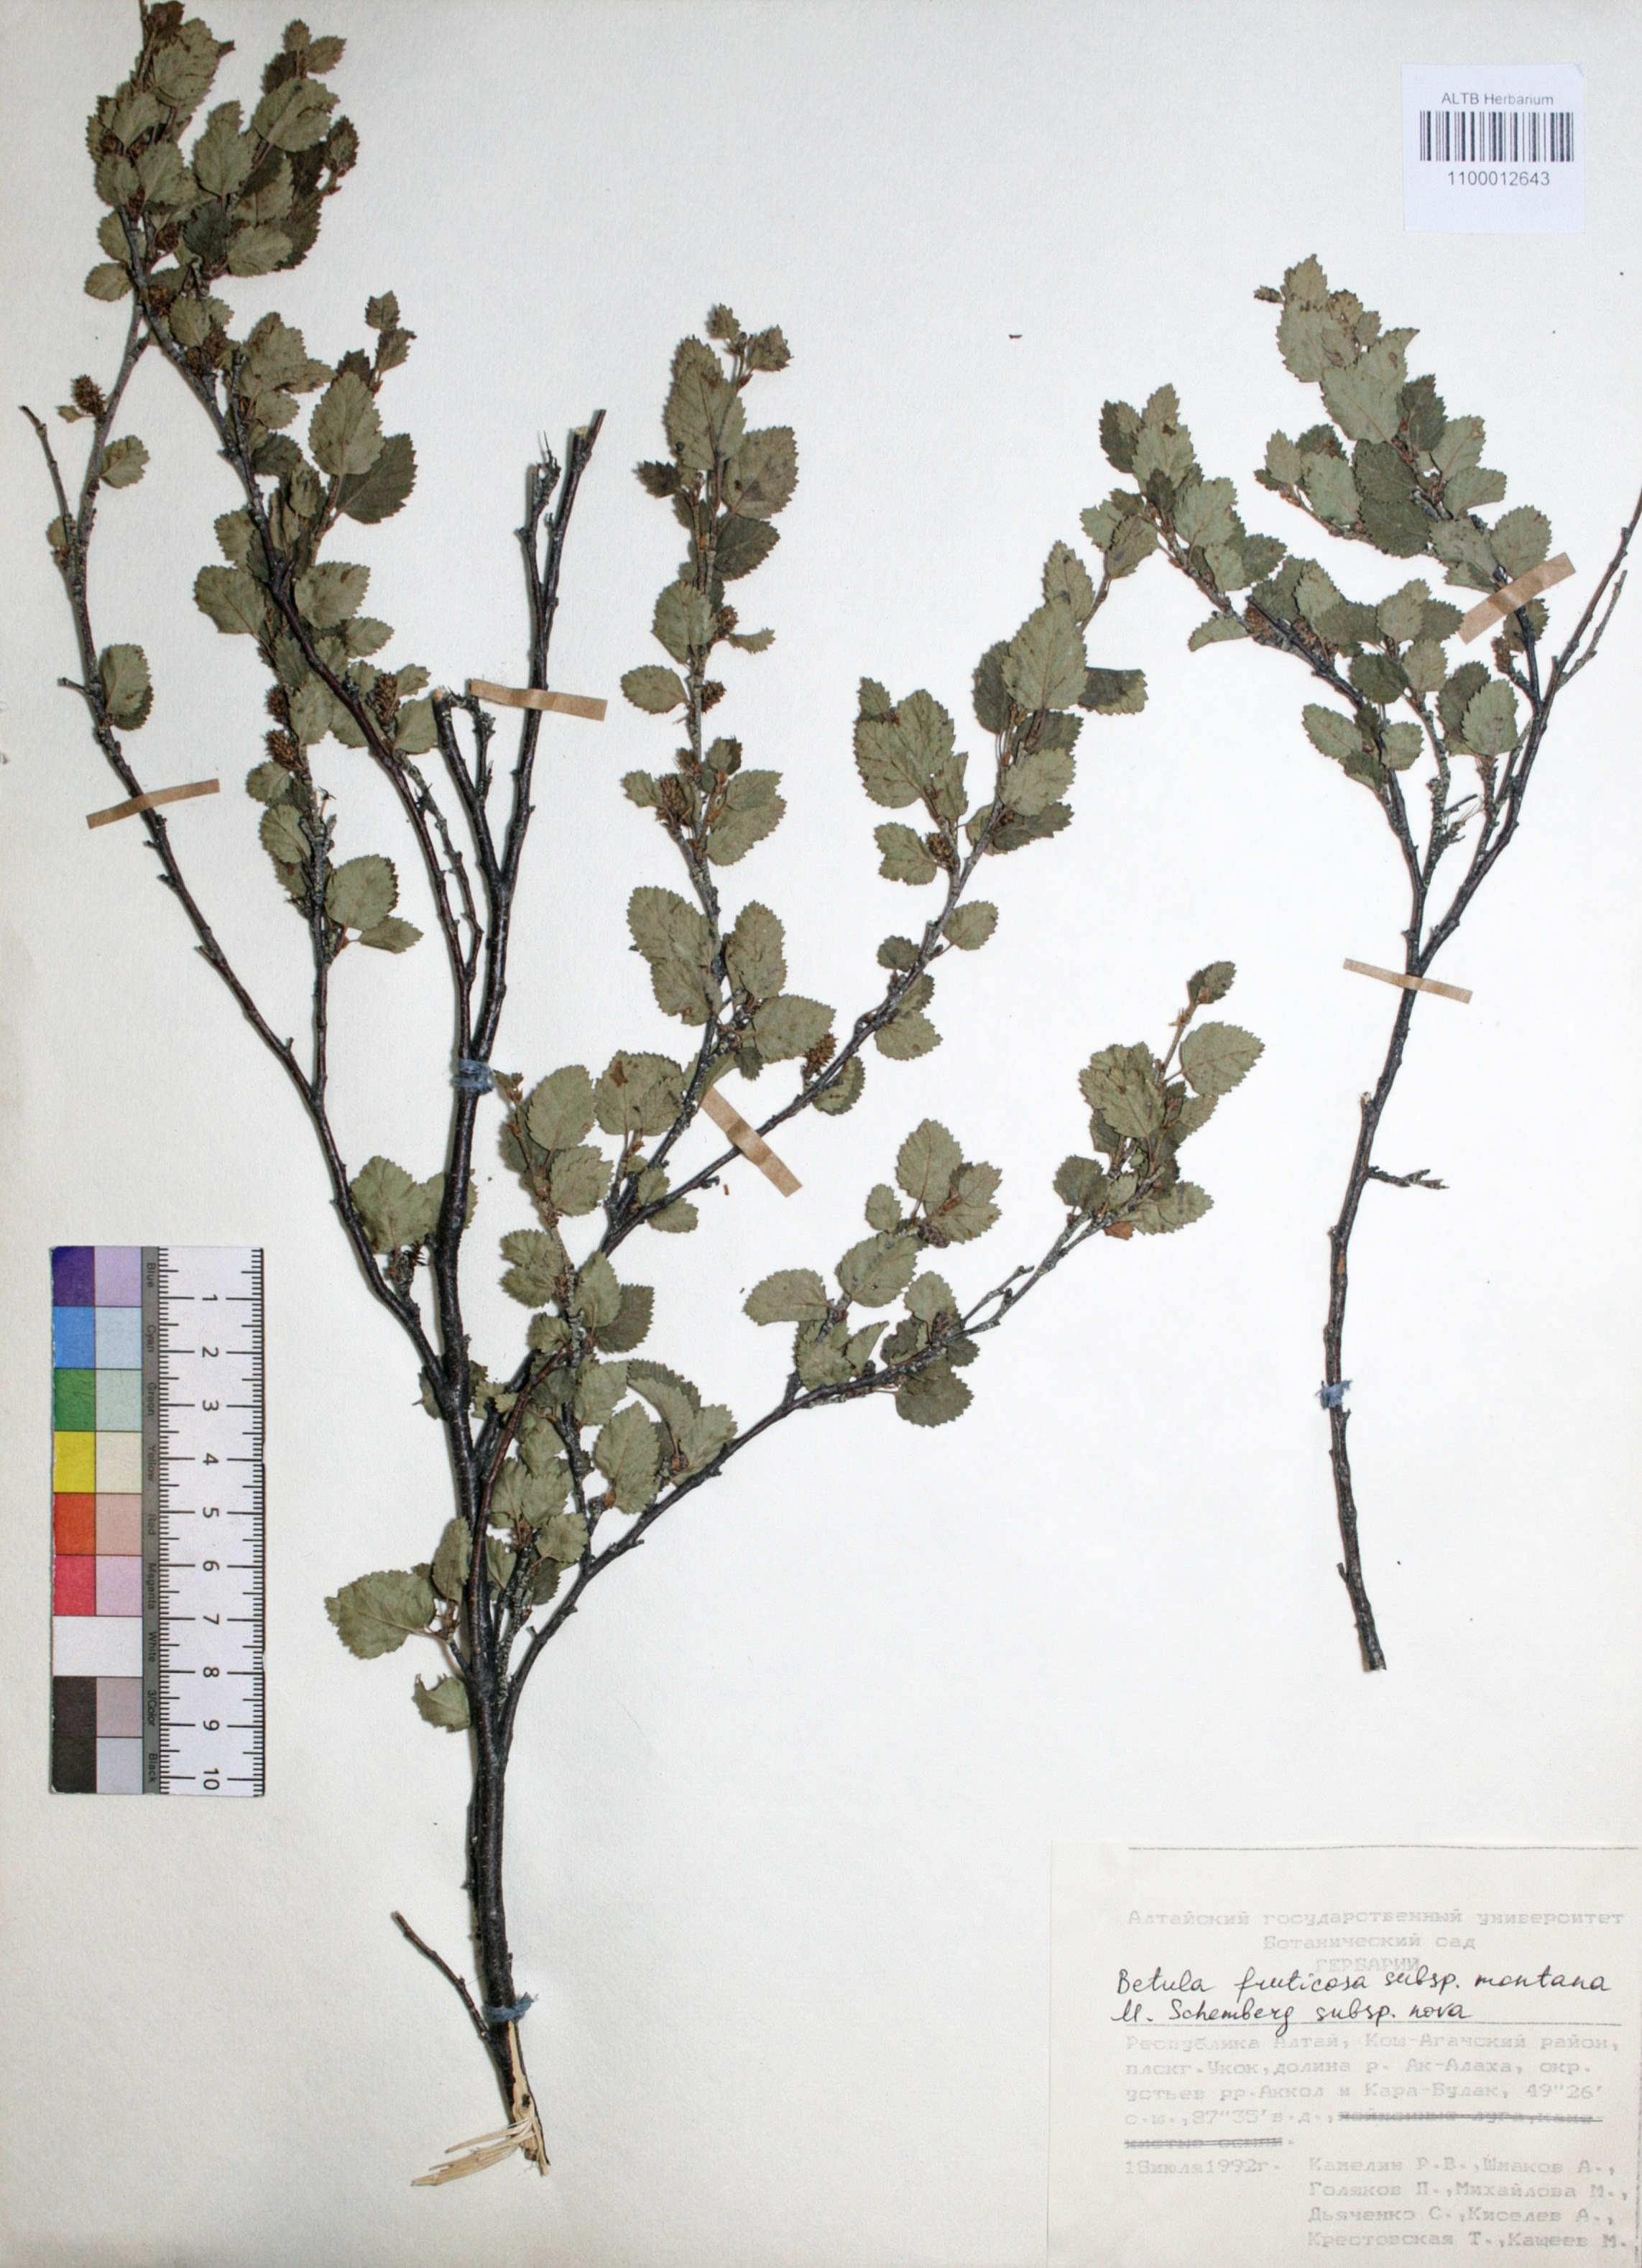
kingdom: Plantae
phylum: Tracheophyta
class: Magnoliopsida
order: Fagales
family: Betulaceae
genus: Betula
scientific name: Betula fruticosa
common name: Japanese bog birch
